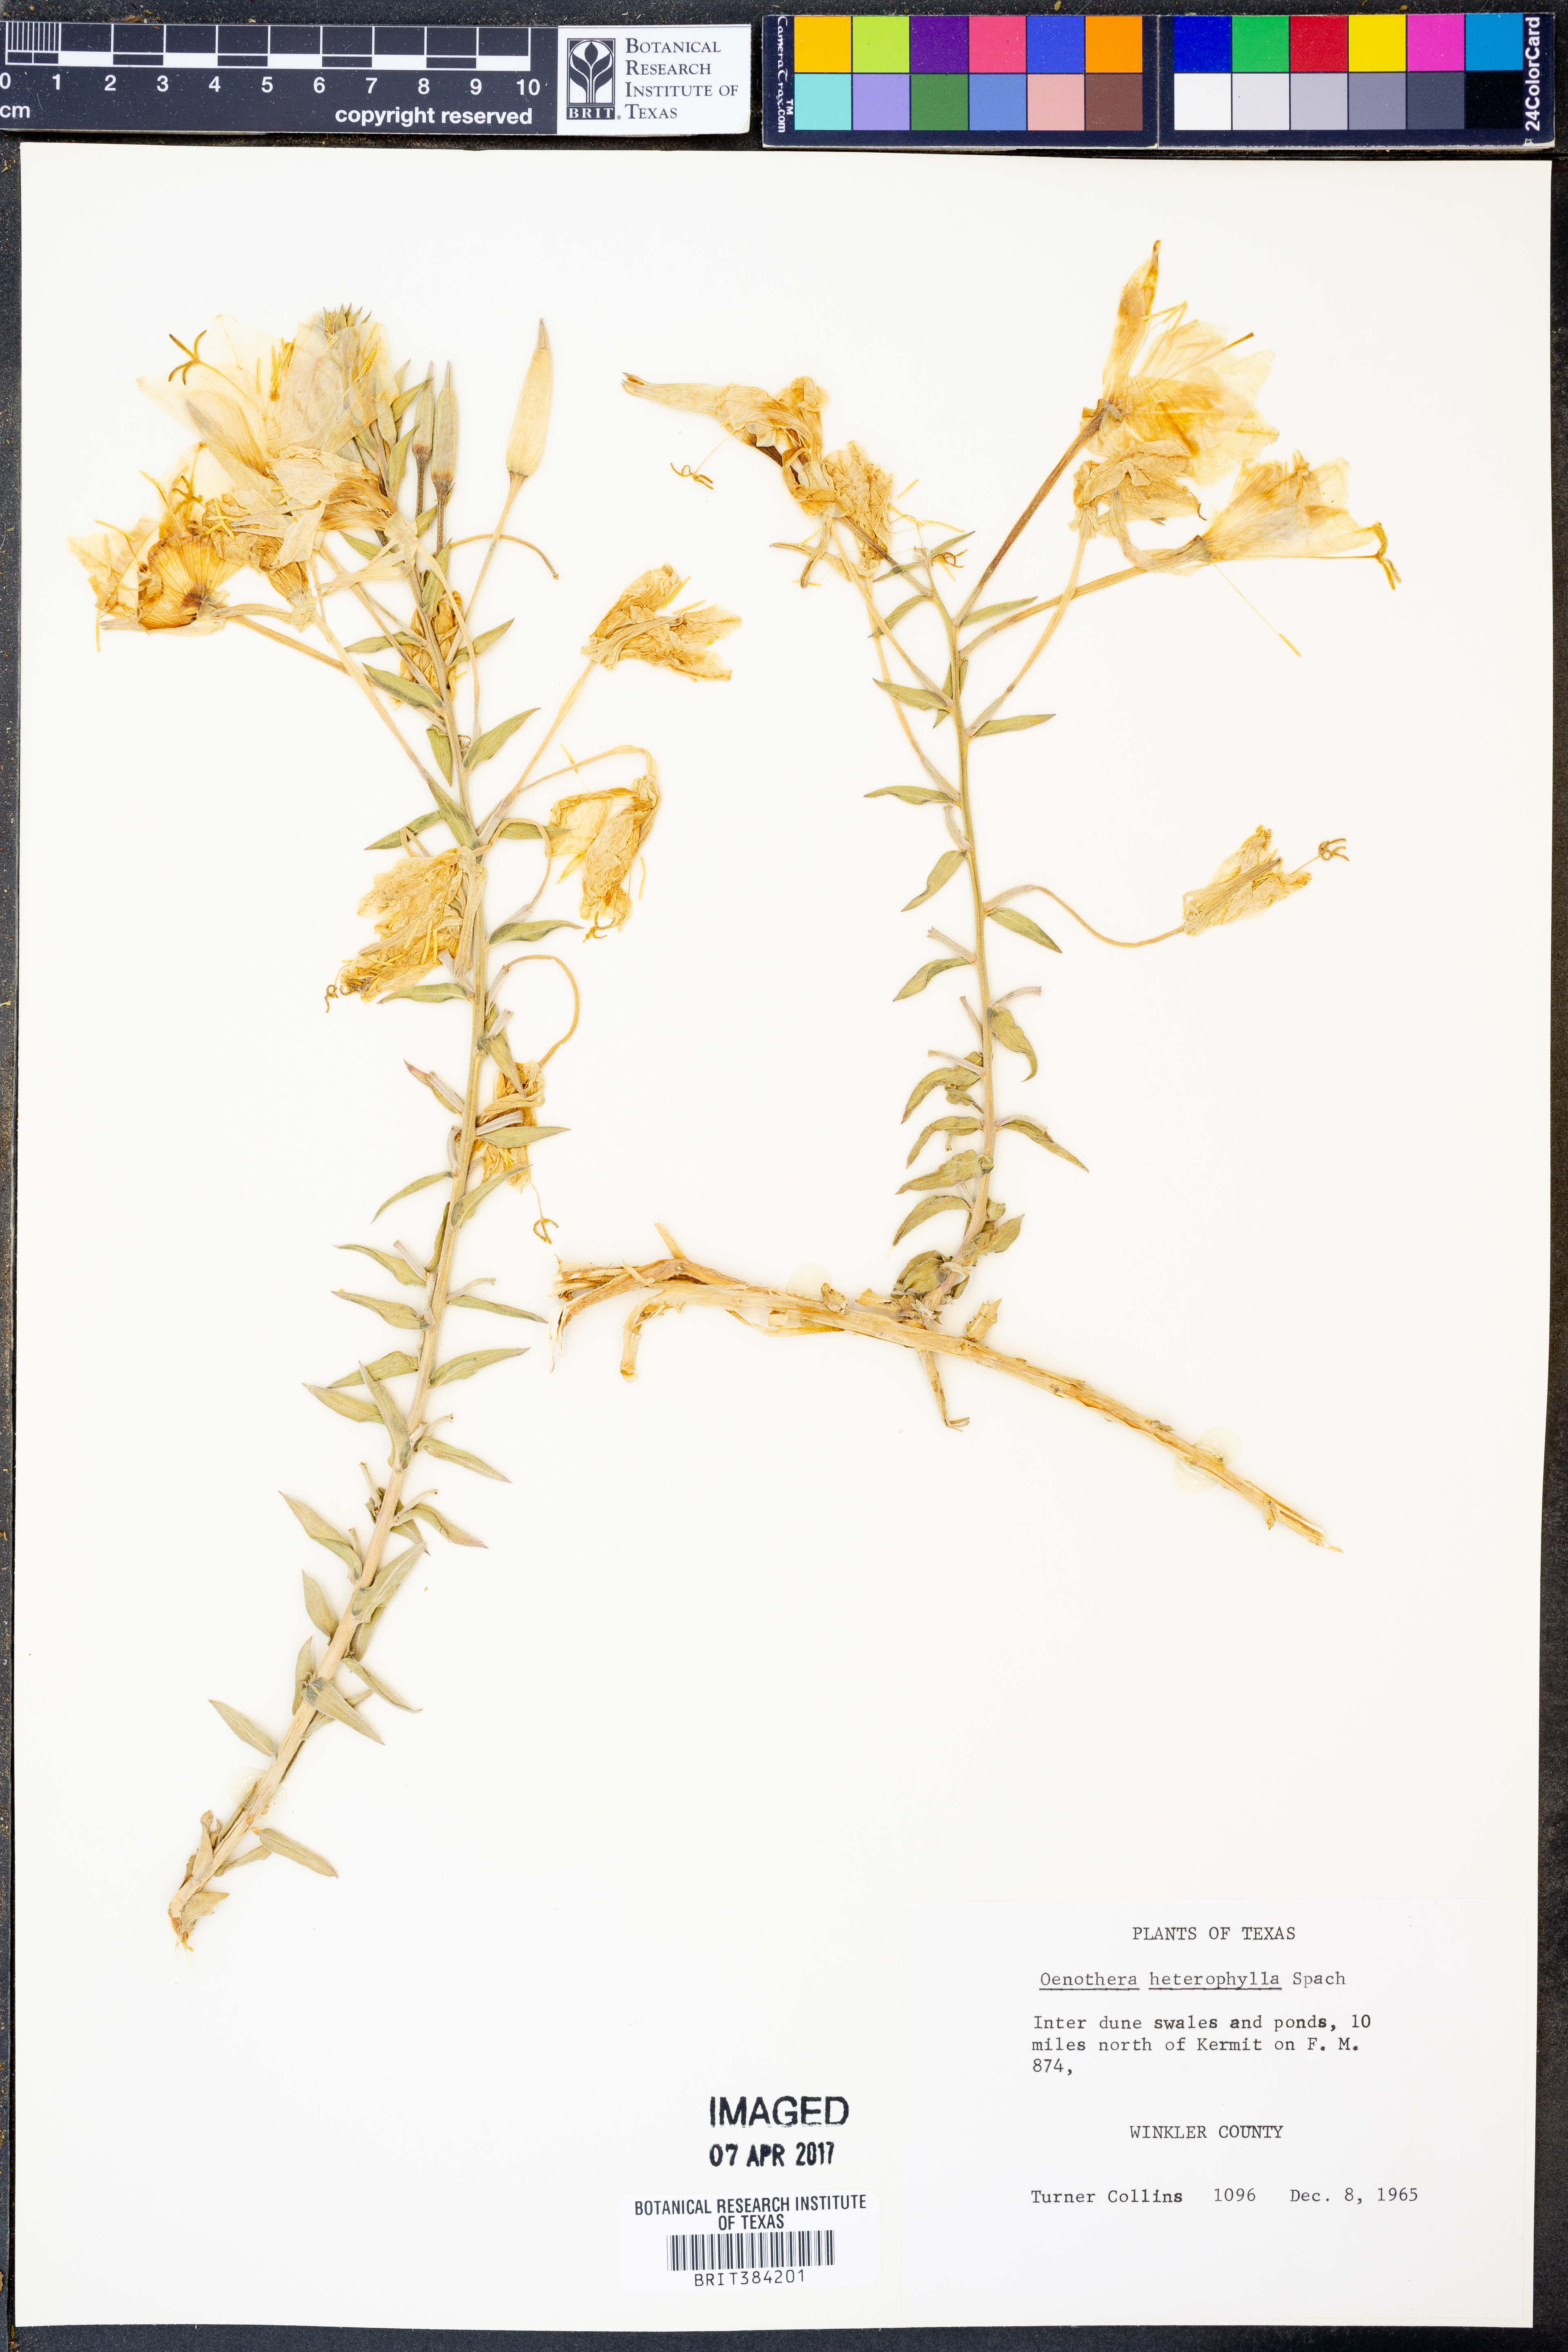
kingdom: Plantae
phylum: Tracheophyta
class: Magnoliopsida
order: Myrtales
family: Onagraceae
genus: Camissonia
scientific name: Camissonia dentata
